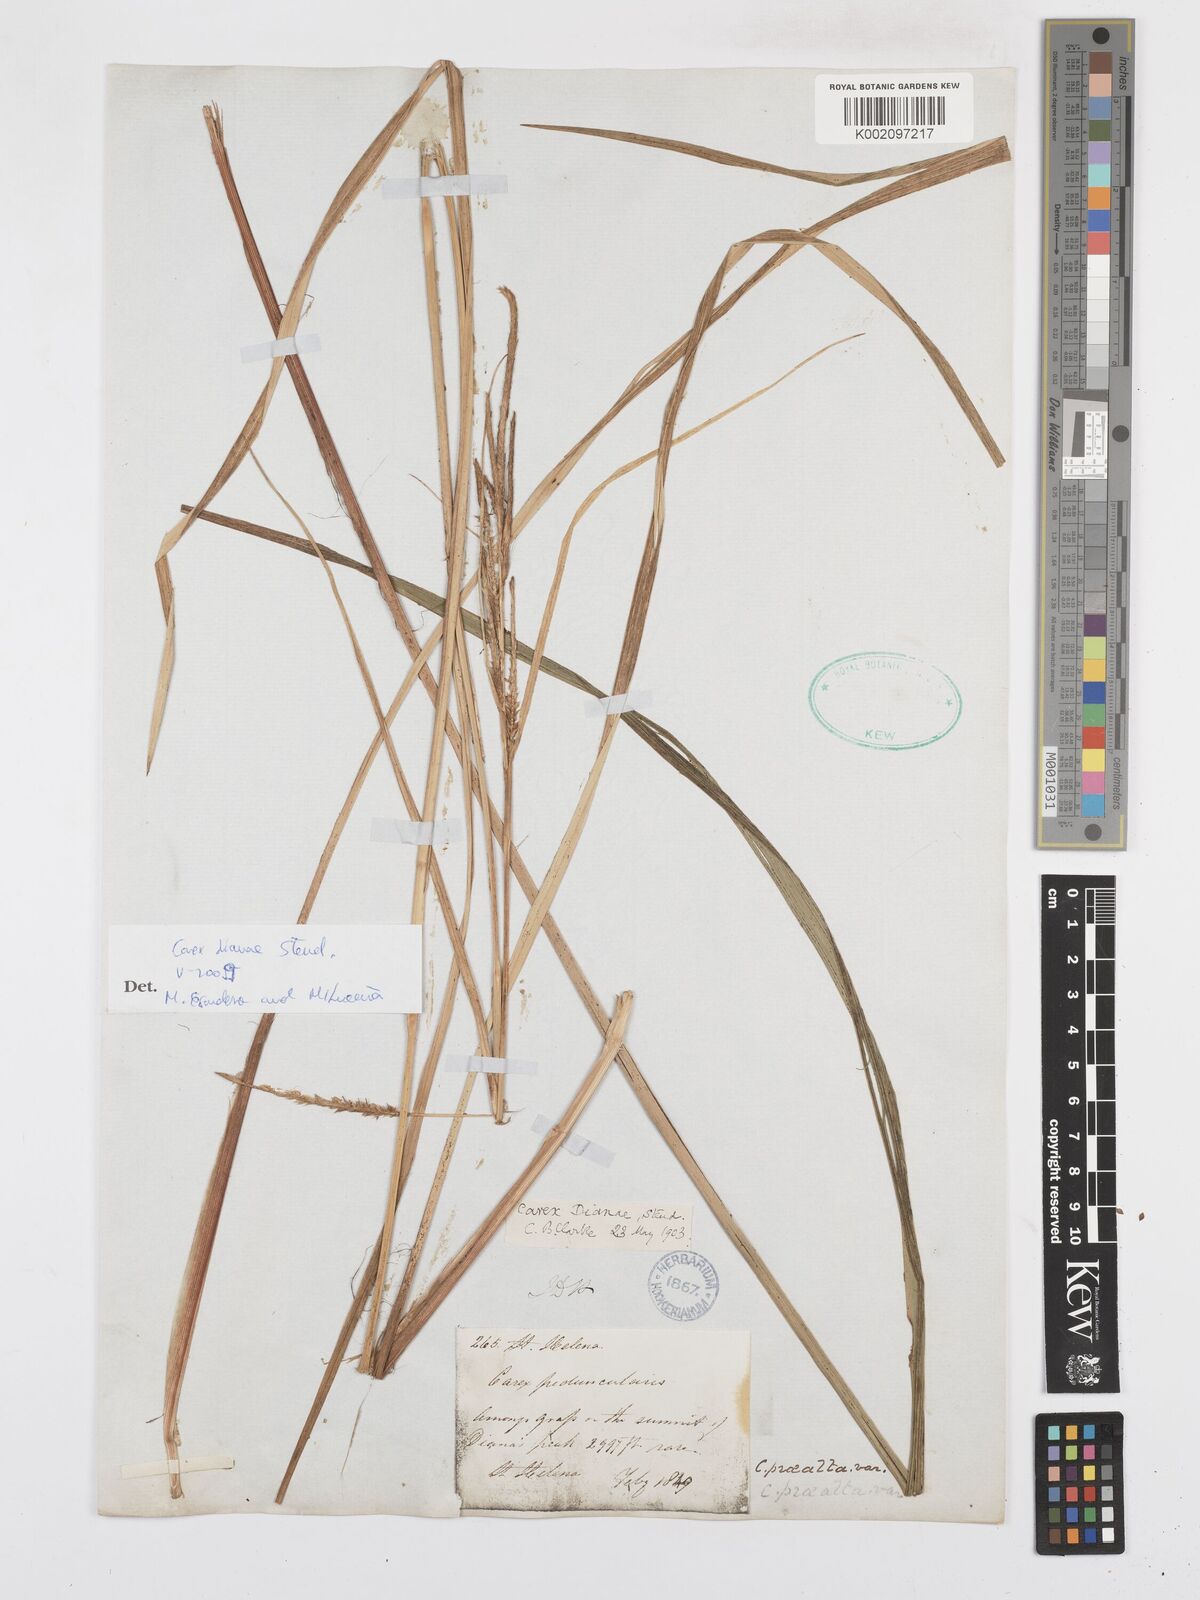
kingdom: Plantae
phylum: Tracheophyta
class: Liliopsida
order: Poales
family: Cyperaceae
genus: Carex
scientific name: Carex dianae
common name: Diana's peak grass
